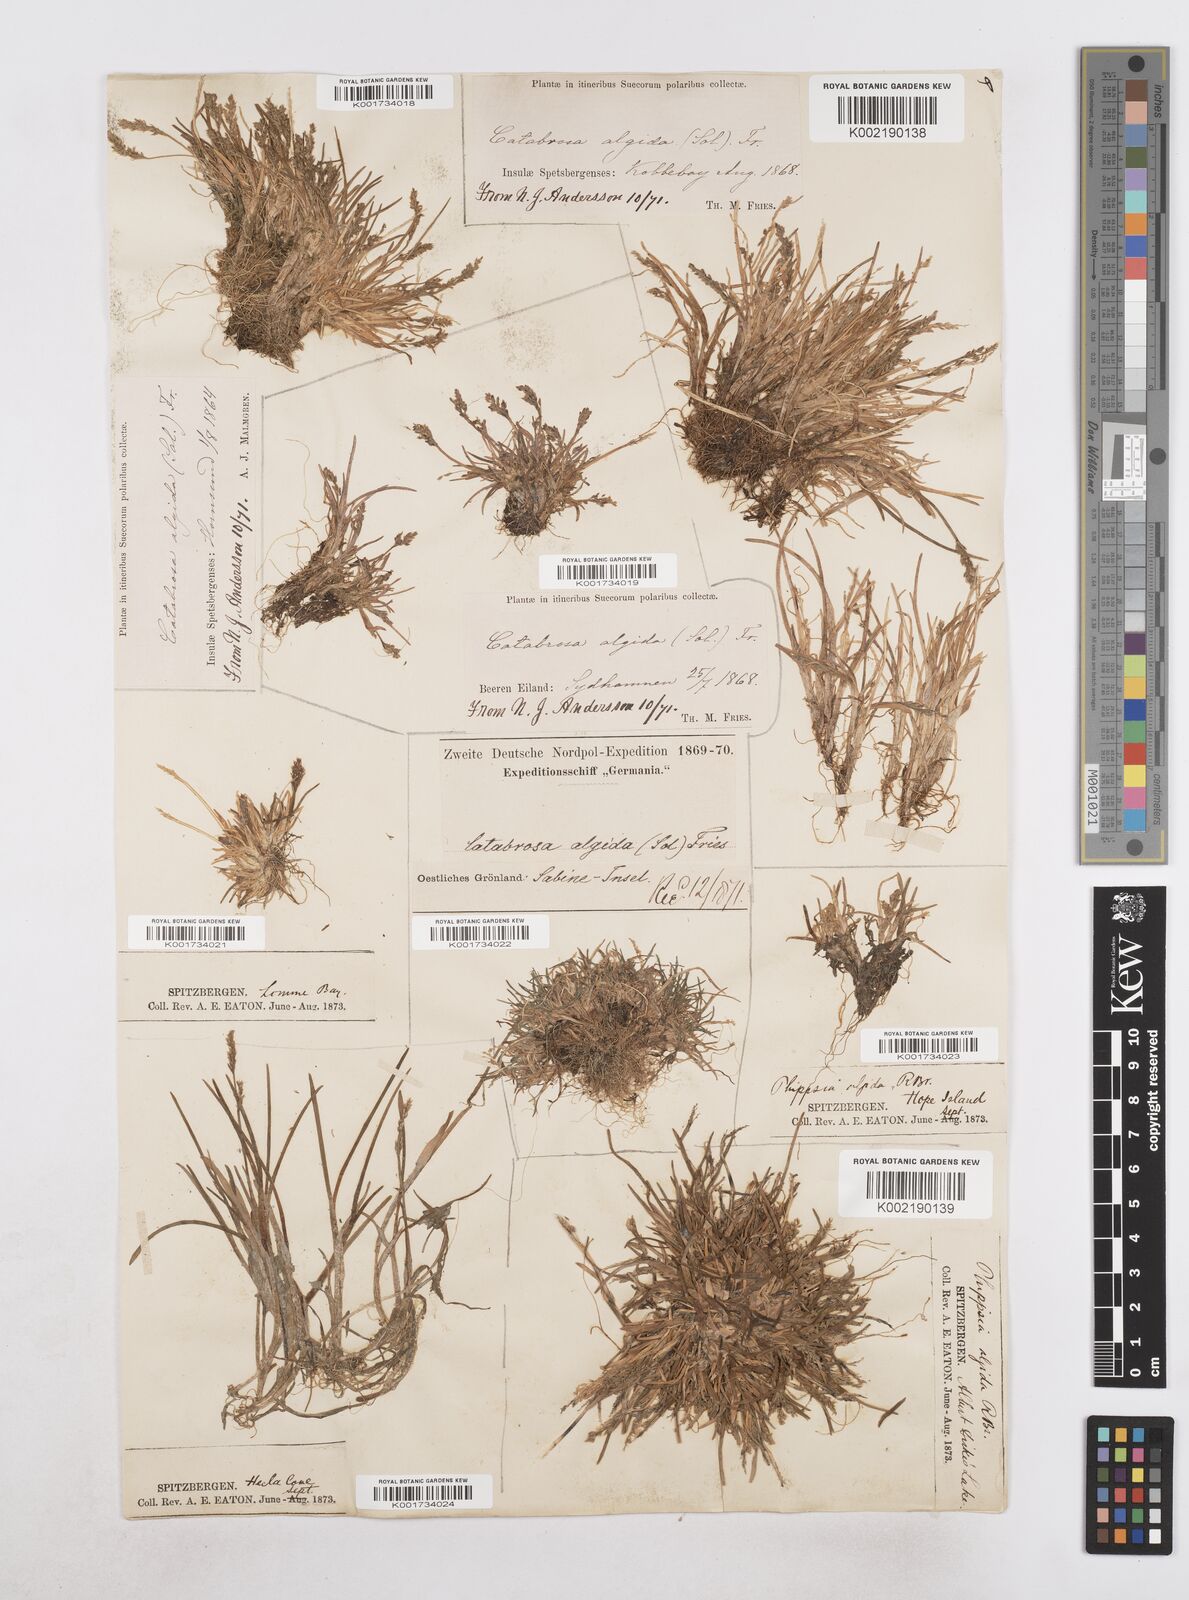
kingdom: Plantae
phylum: Tracheophyta
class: Liliopsida
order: Poales
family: Poaceae
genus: Phippsia
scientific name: Phippsia algida
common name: Ice grass
